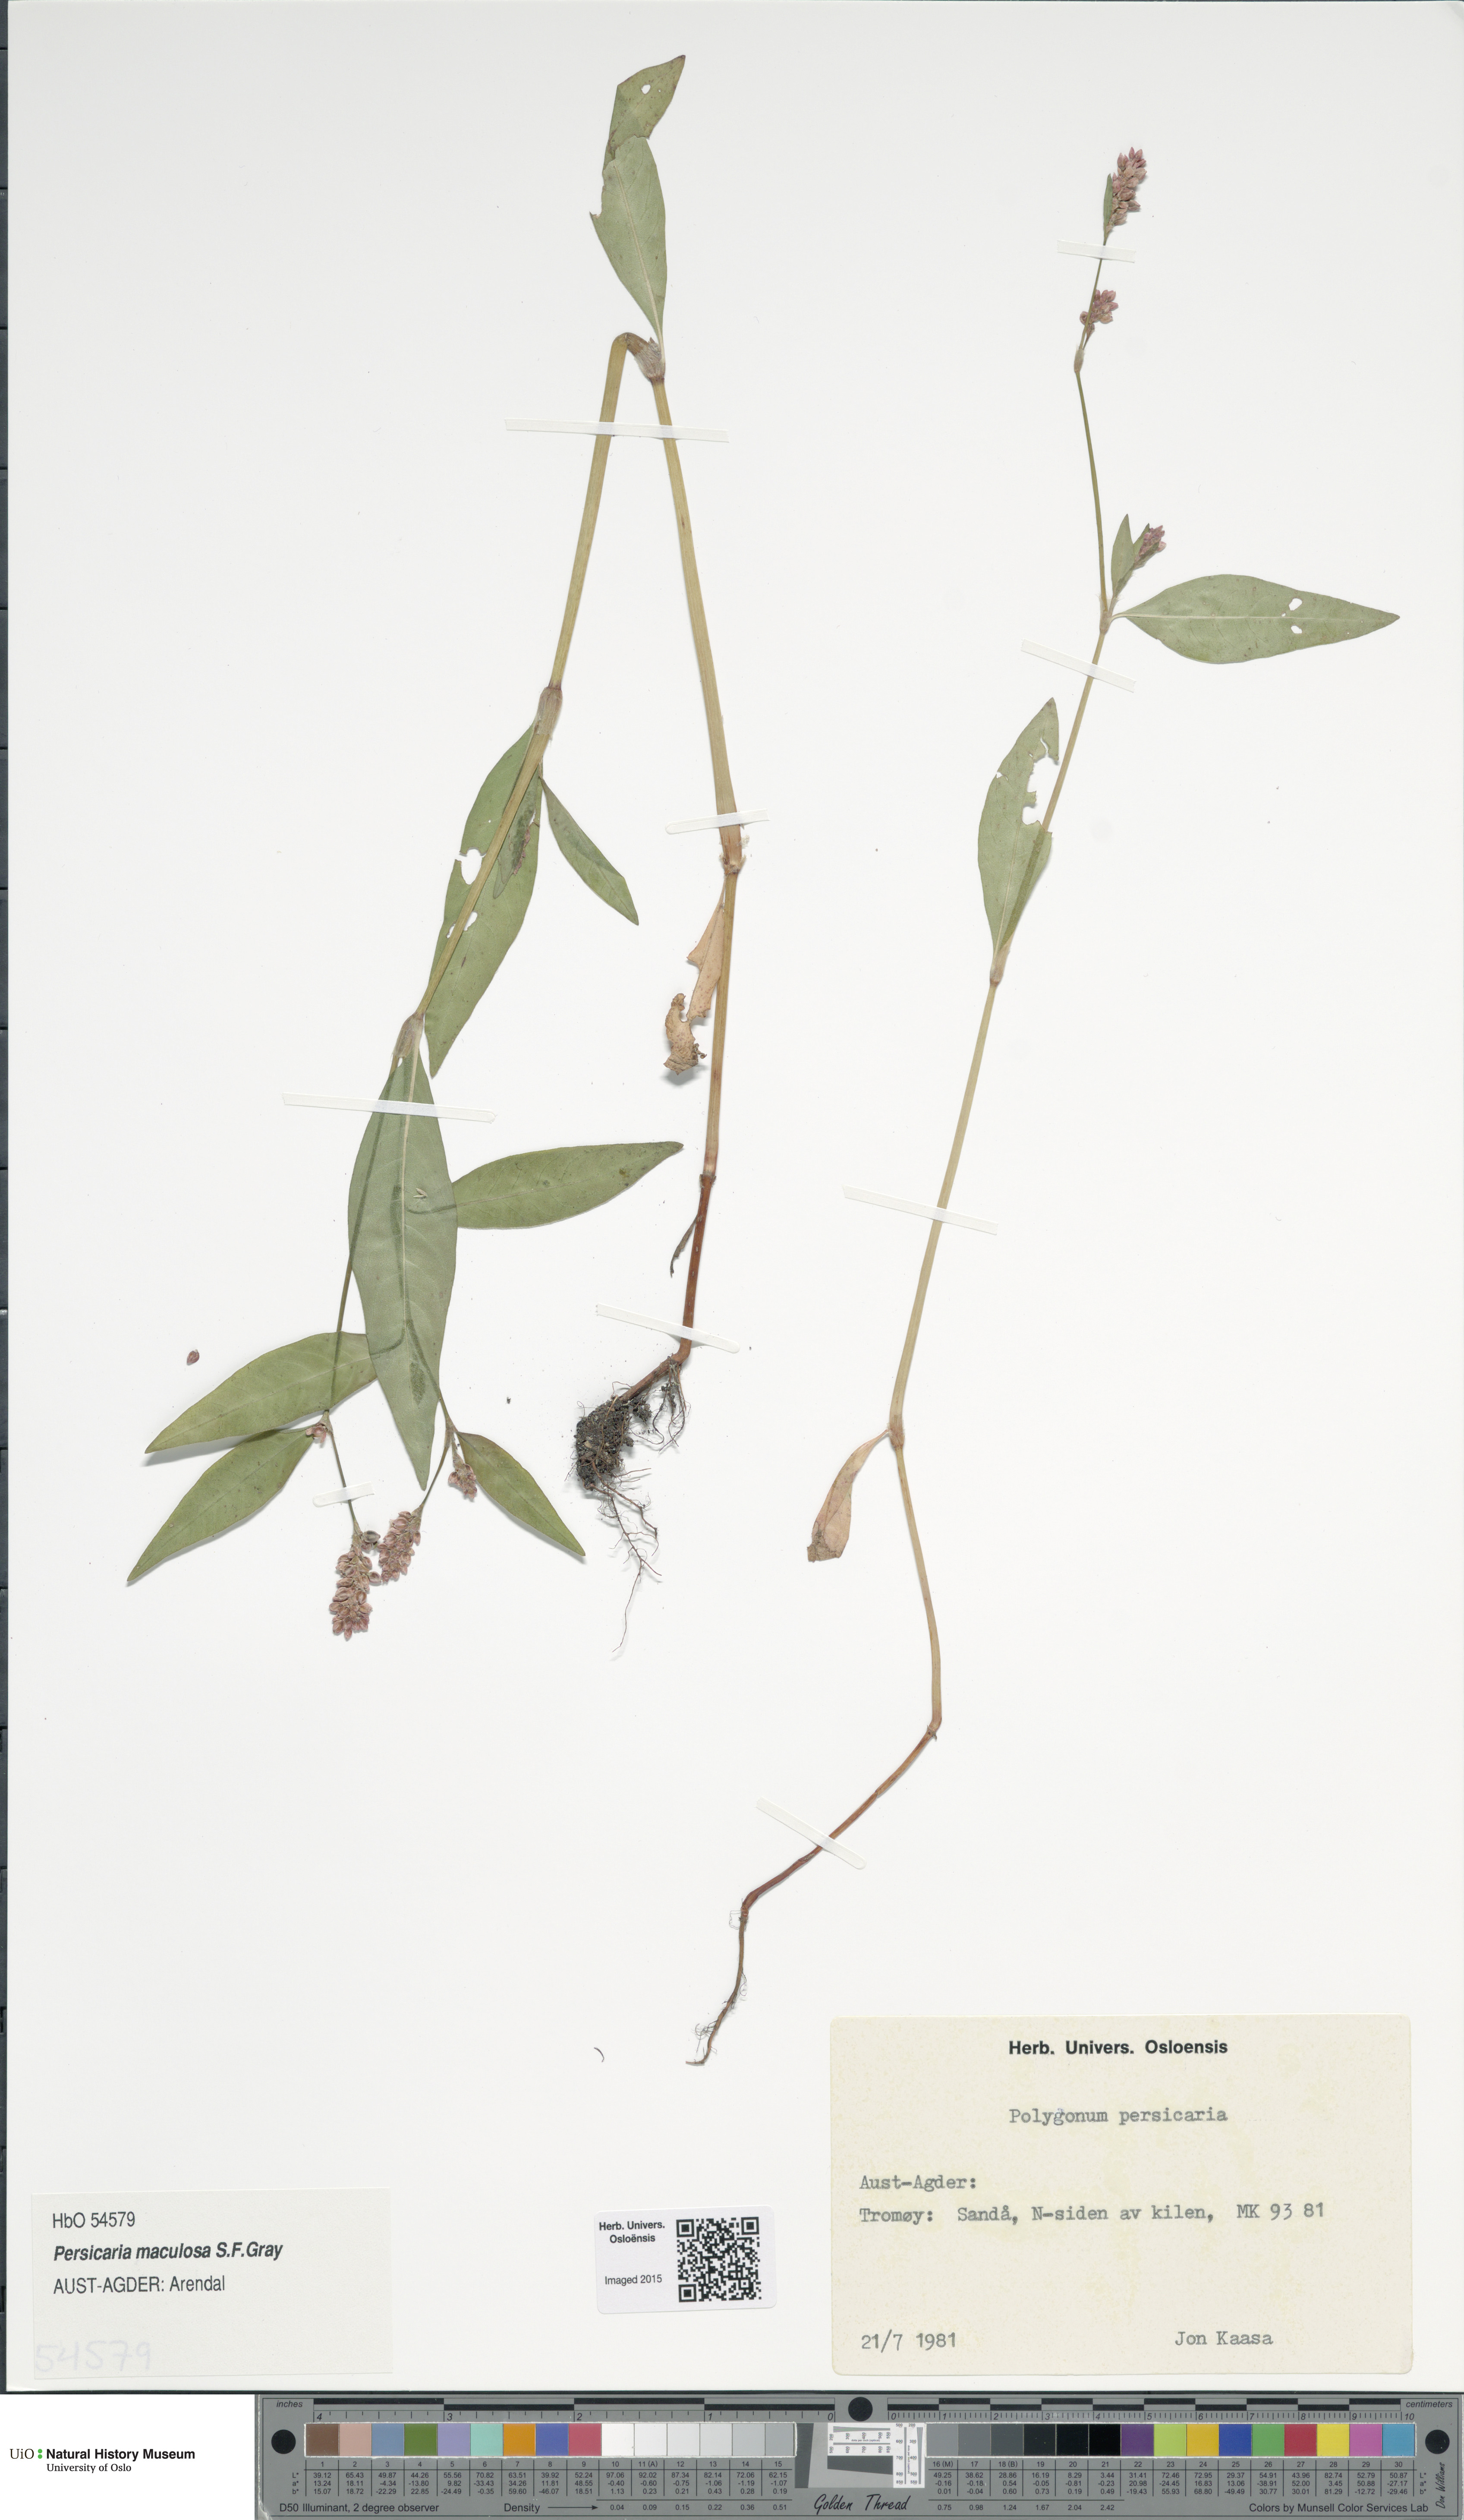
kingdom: Plantae
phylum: Tracheophyta
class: Magnoliopsida
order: Caryophyllales
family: Polygonaceae
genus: Persicaria
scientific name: Persicaria maculosa
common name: Redshank
